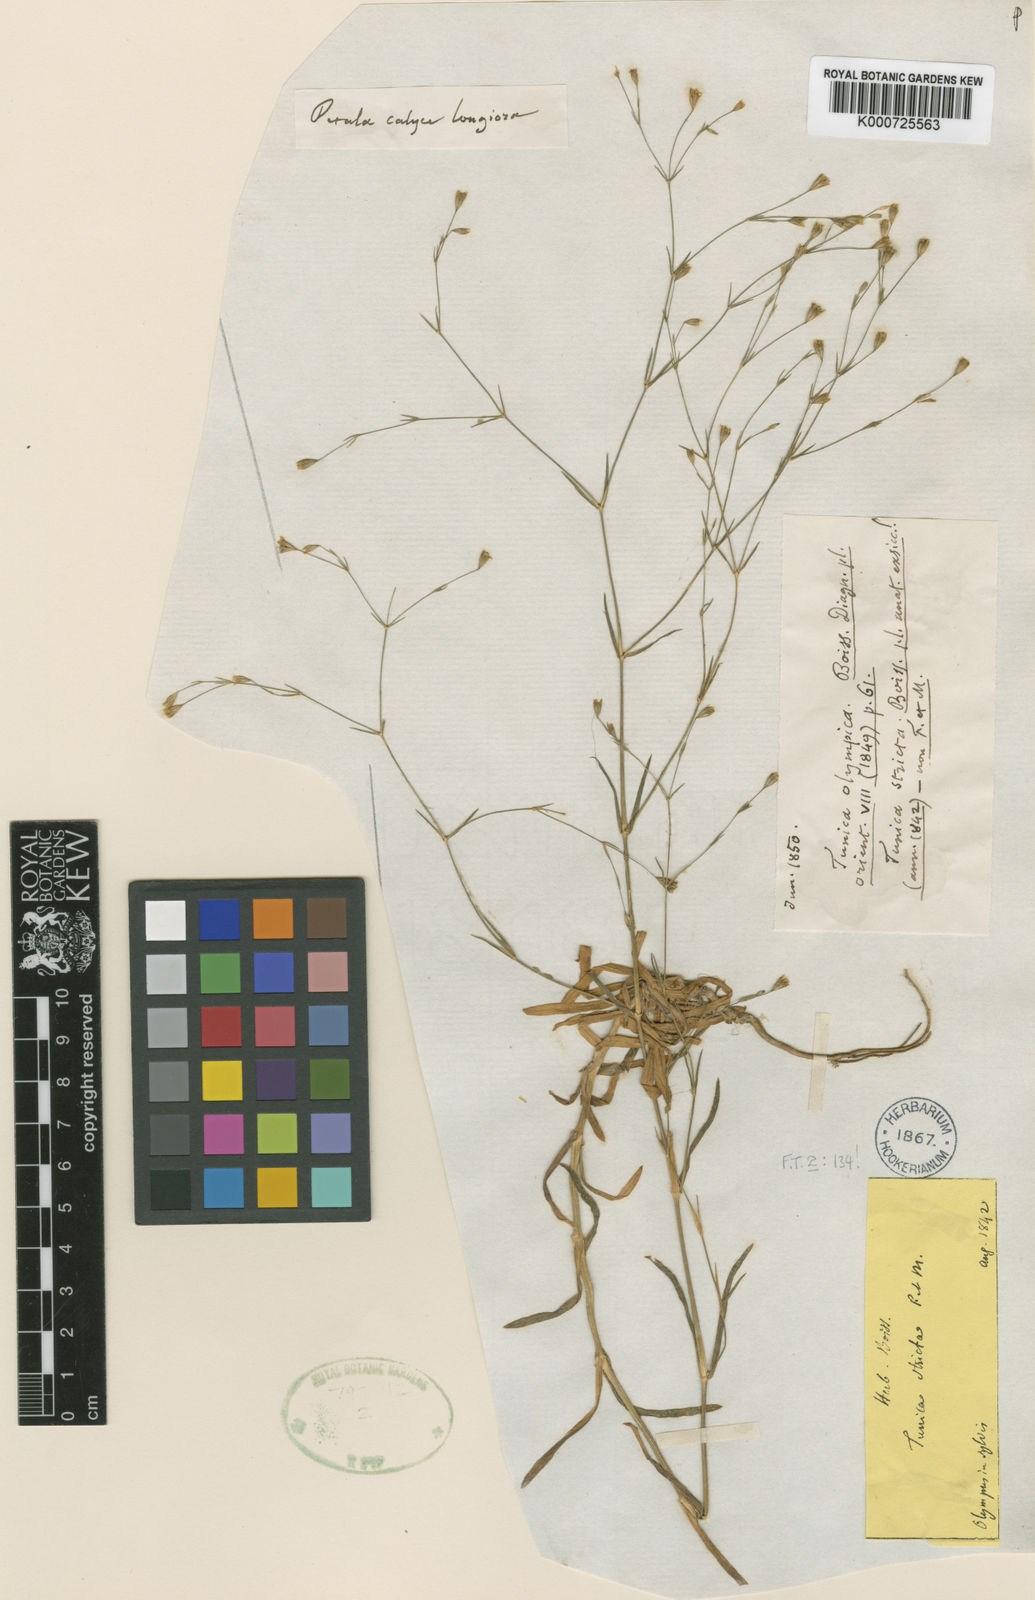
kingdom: Plantae
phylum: Tracheophyta
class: Magnoliopsida
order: Caryophyllales
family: Caryophyllaceae
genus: Petrorhagia
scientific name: Petrorhagia alpina
